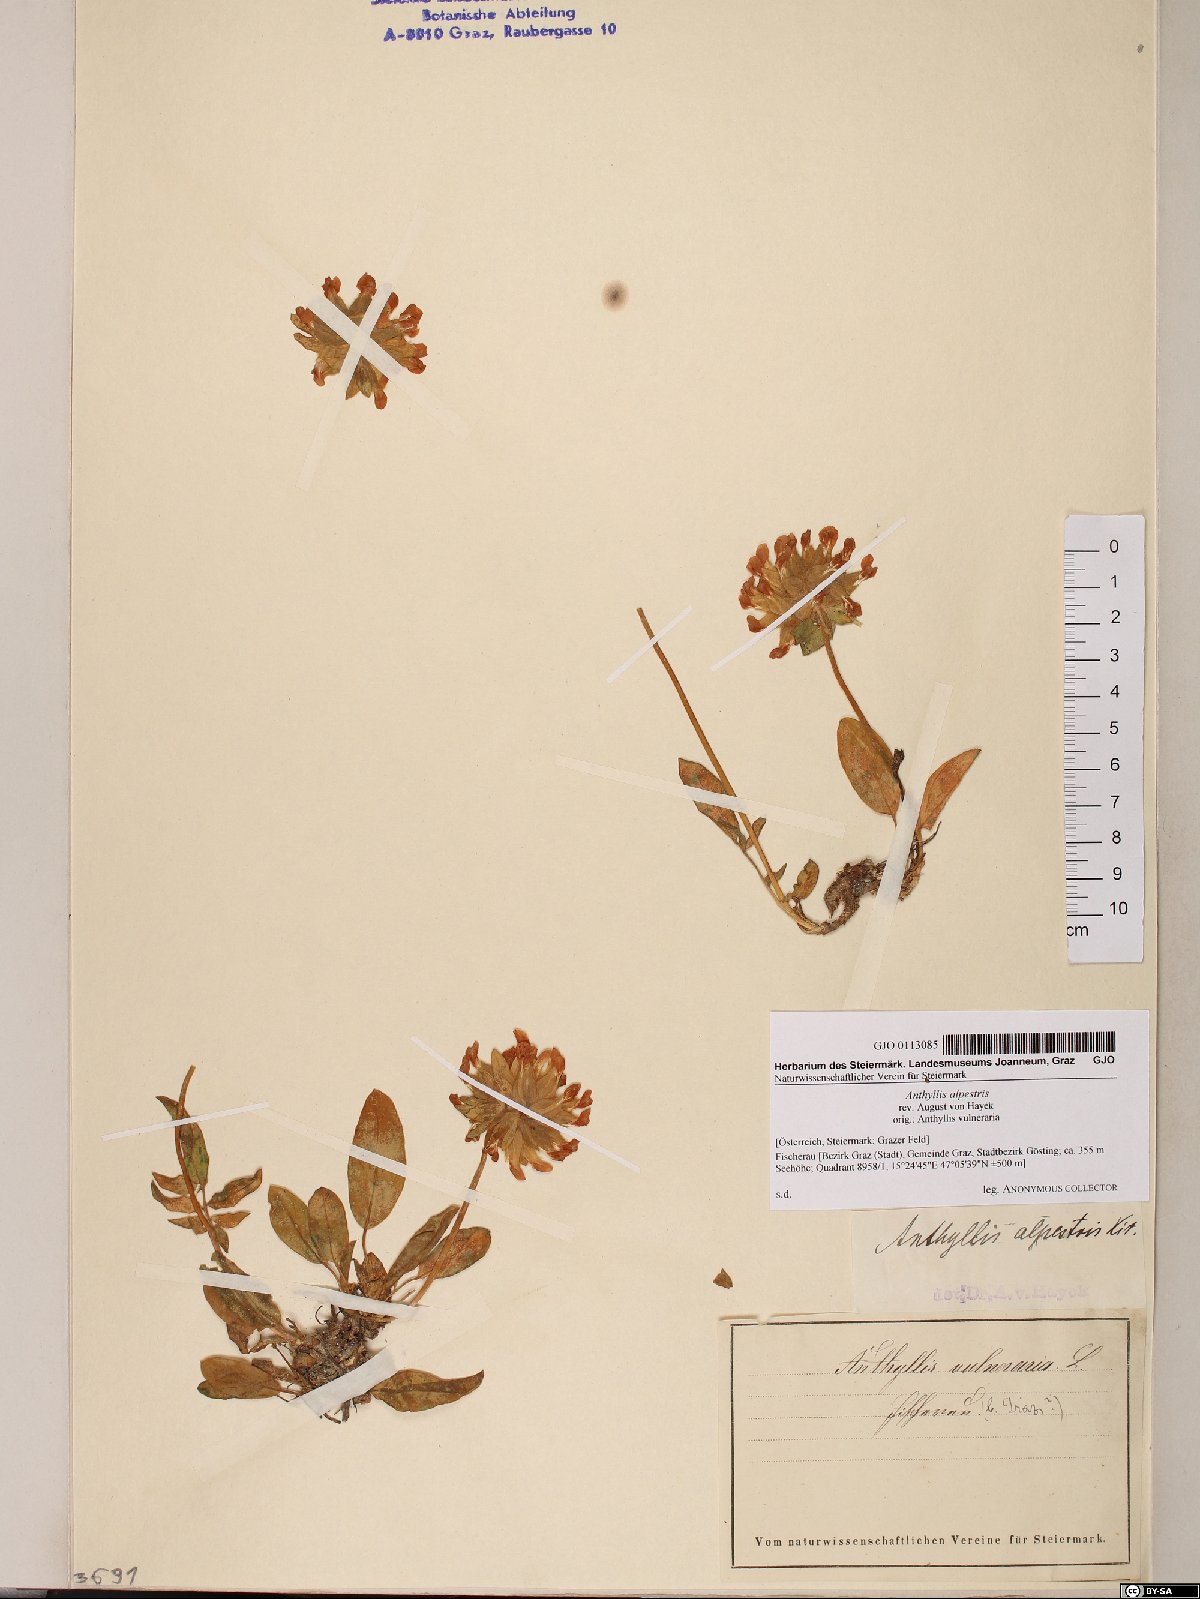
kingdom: Plantae
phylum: Tracheophyta
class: Magnoliopsida
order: Fabales
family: Fabaceae
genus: Anthyllis
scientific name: Anthyllis vulneraria
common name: Kidney vetch
